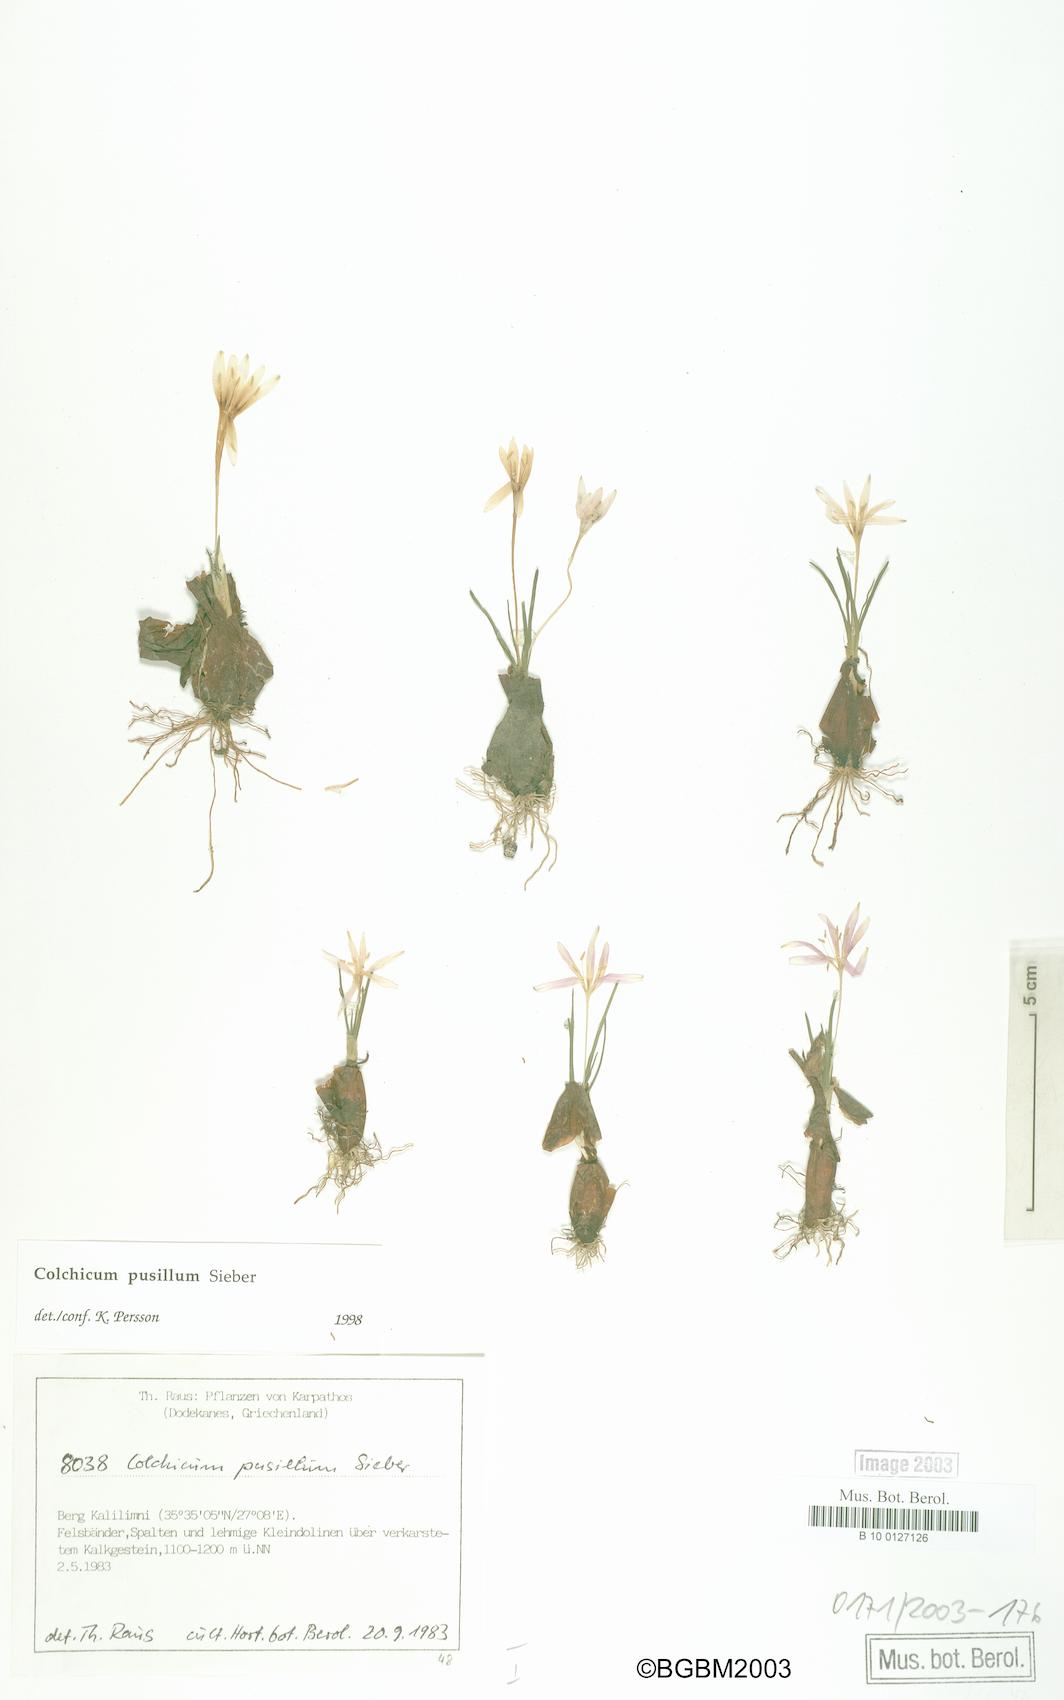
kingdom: Plantae
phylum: Tracheophyta
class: Liliopsida
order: Liliales
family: Colchicaceae
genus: Colchicum
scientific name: Colchicum pusillum
